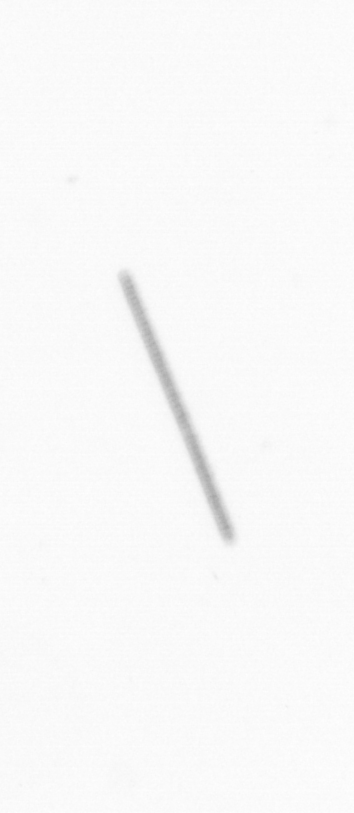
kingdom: Chromista
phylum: Ochrophyta
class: Bacillariophyceae
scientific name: Bacillariophyceae
